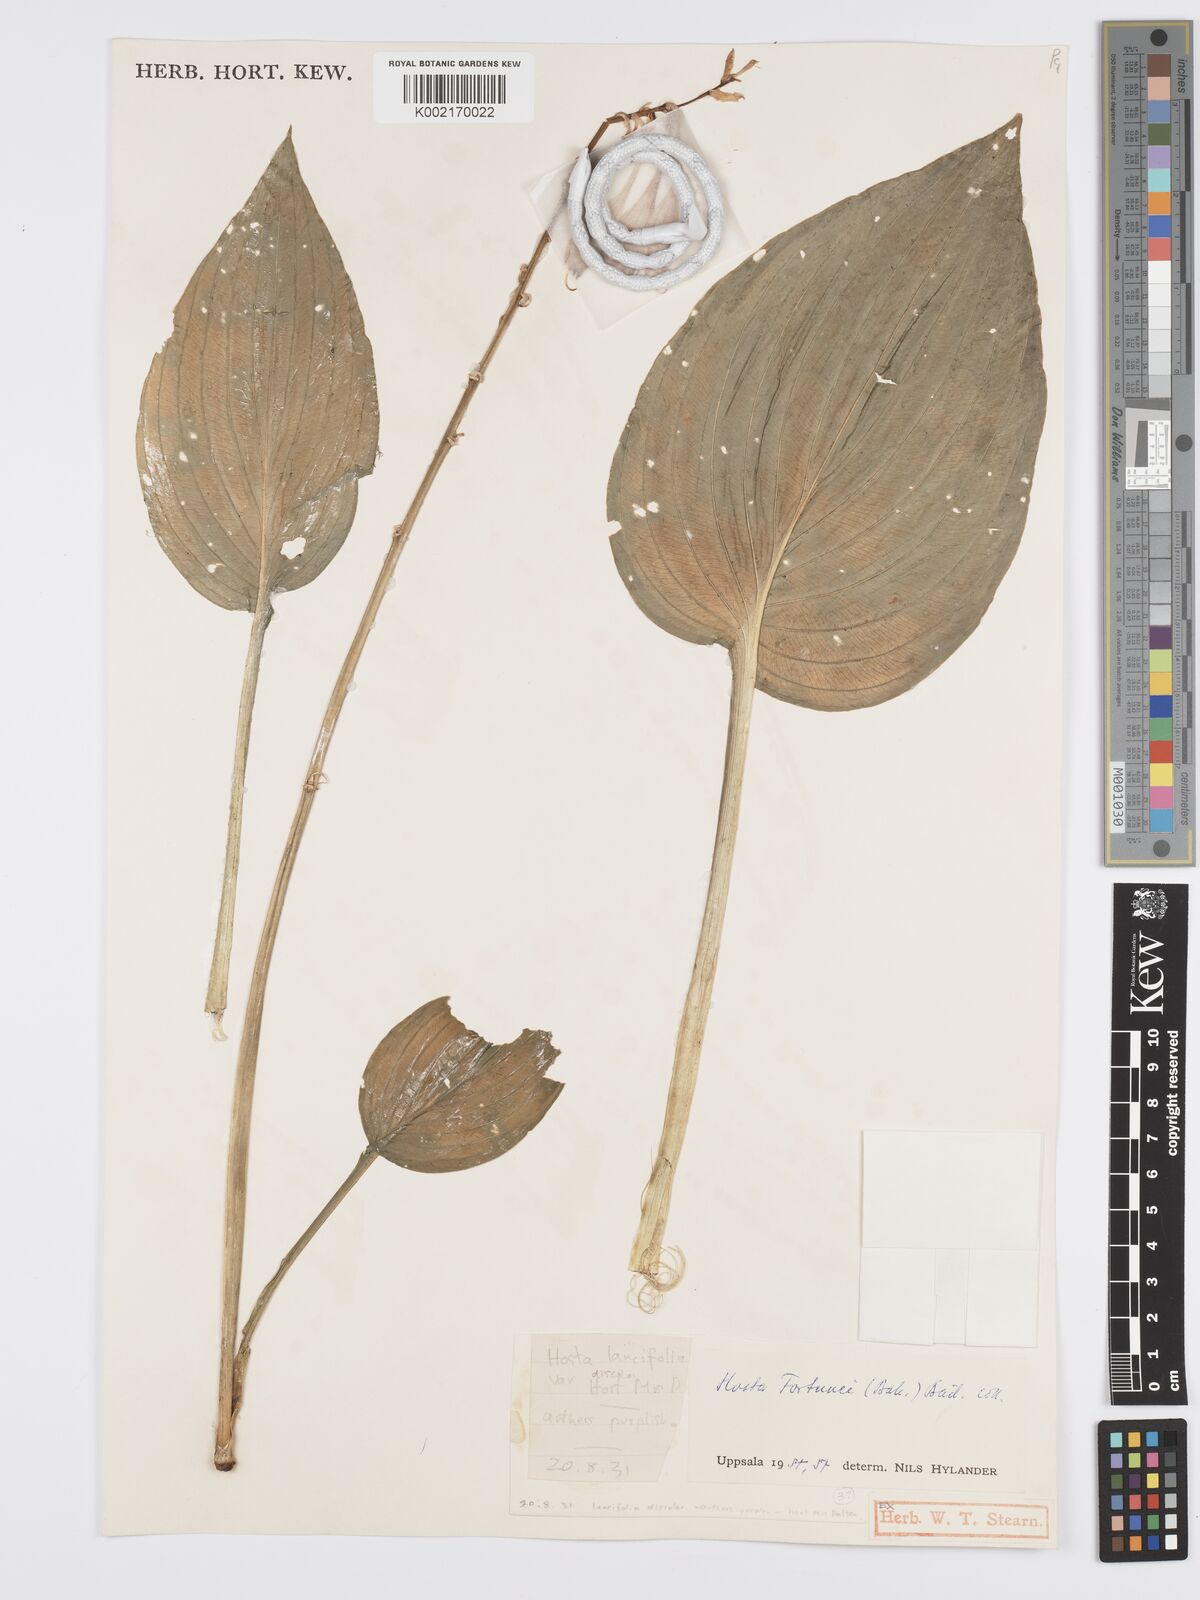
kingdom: Plantae
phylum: Tracheophyta
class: Liliopsida
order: Asparagales
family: Asparagaceae
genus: Hosta
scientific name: Hosta sieboldiana
